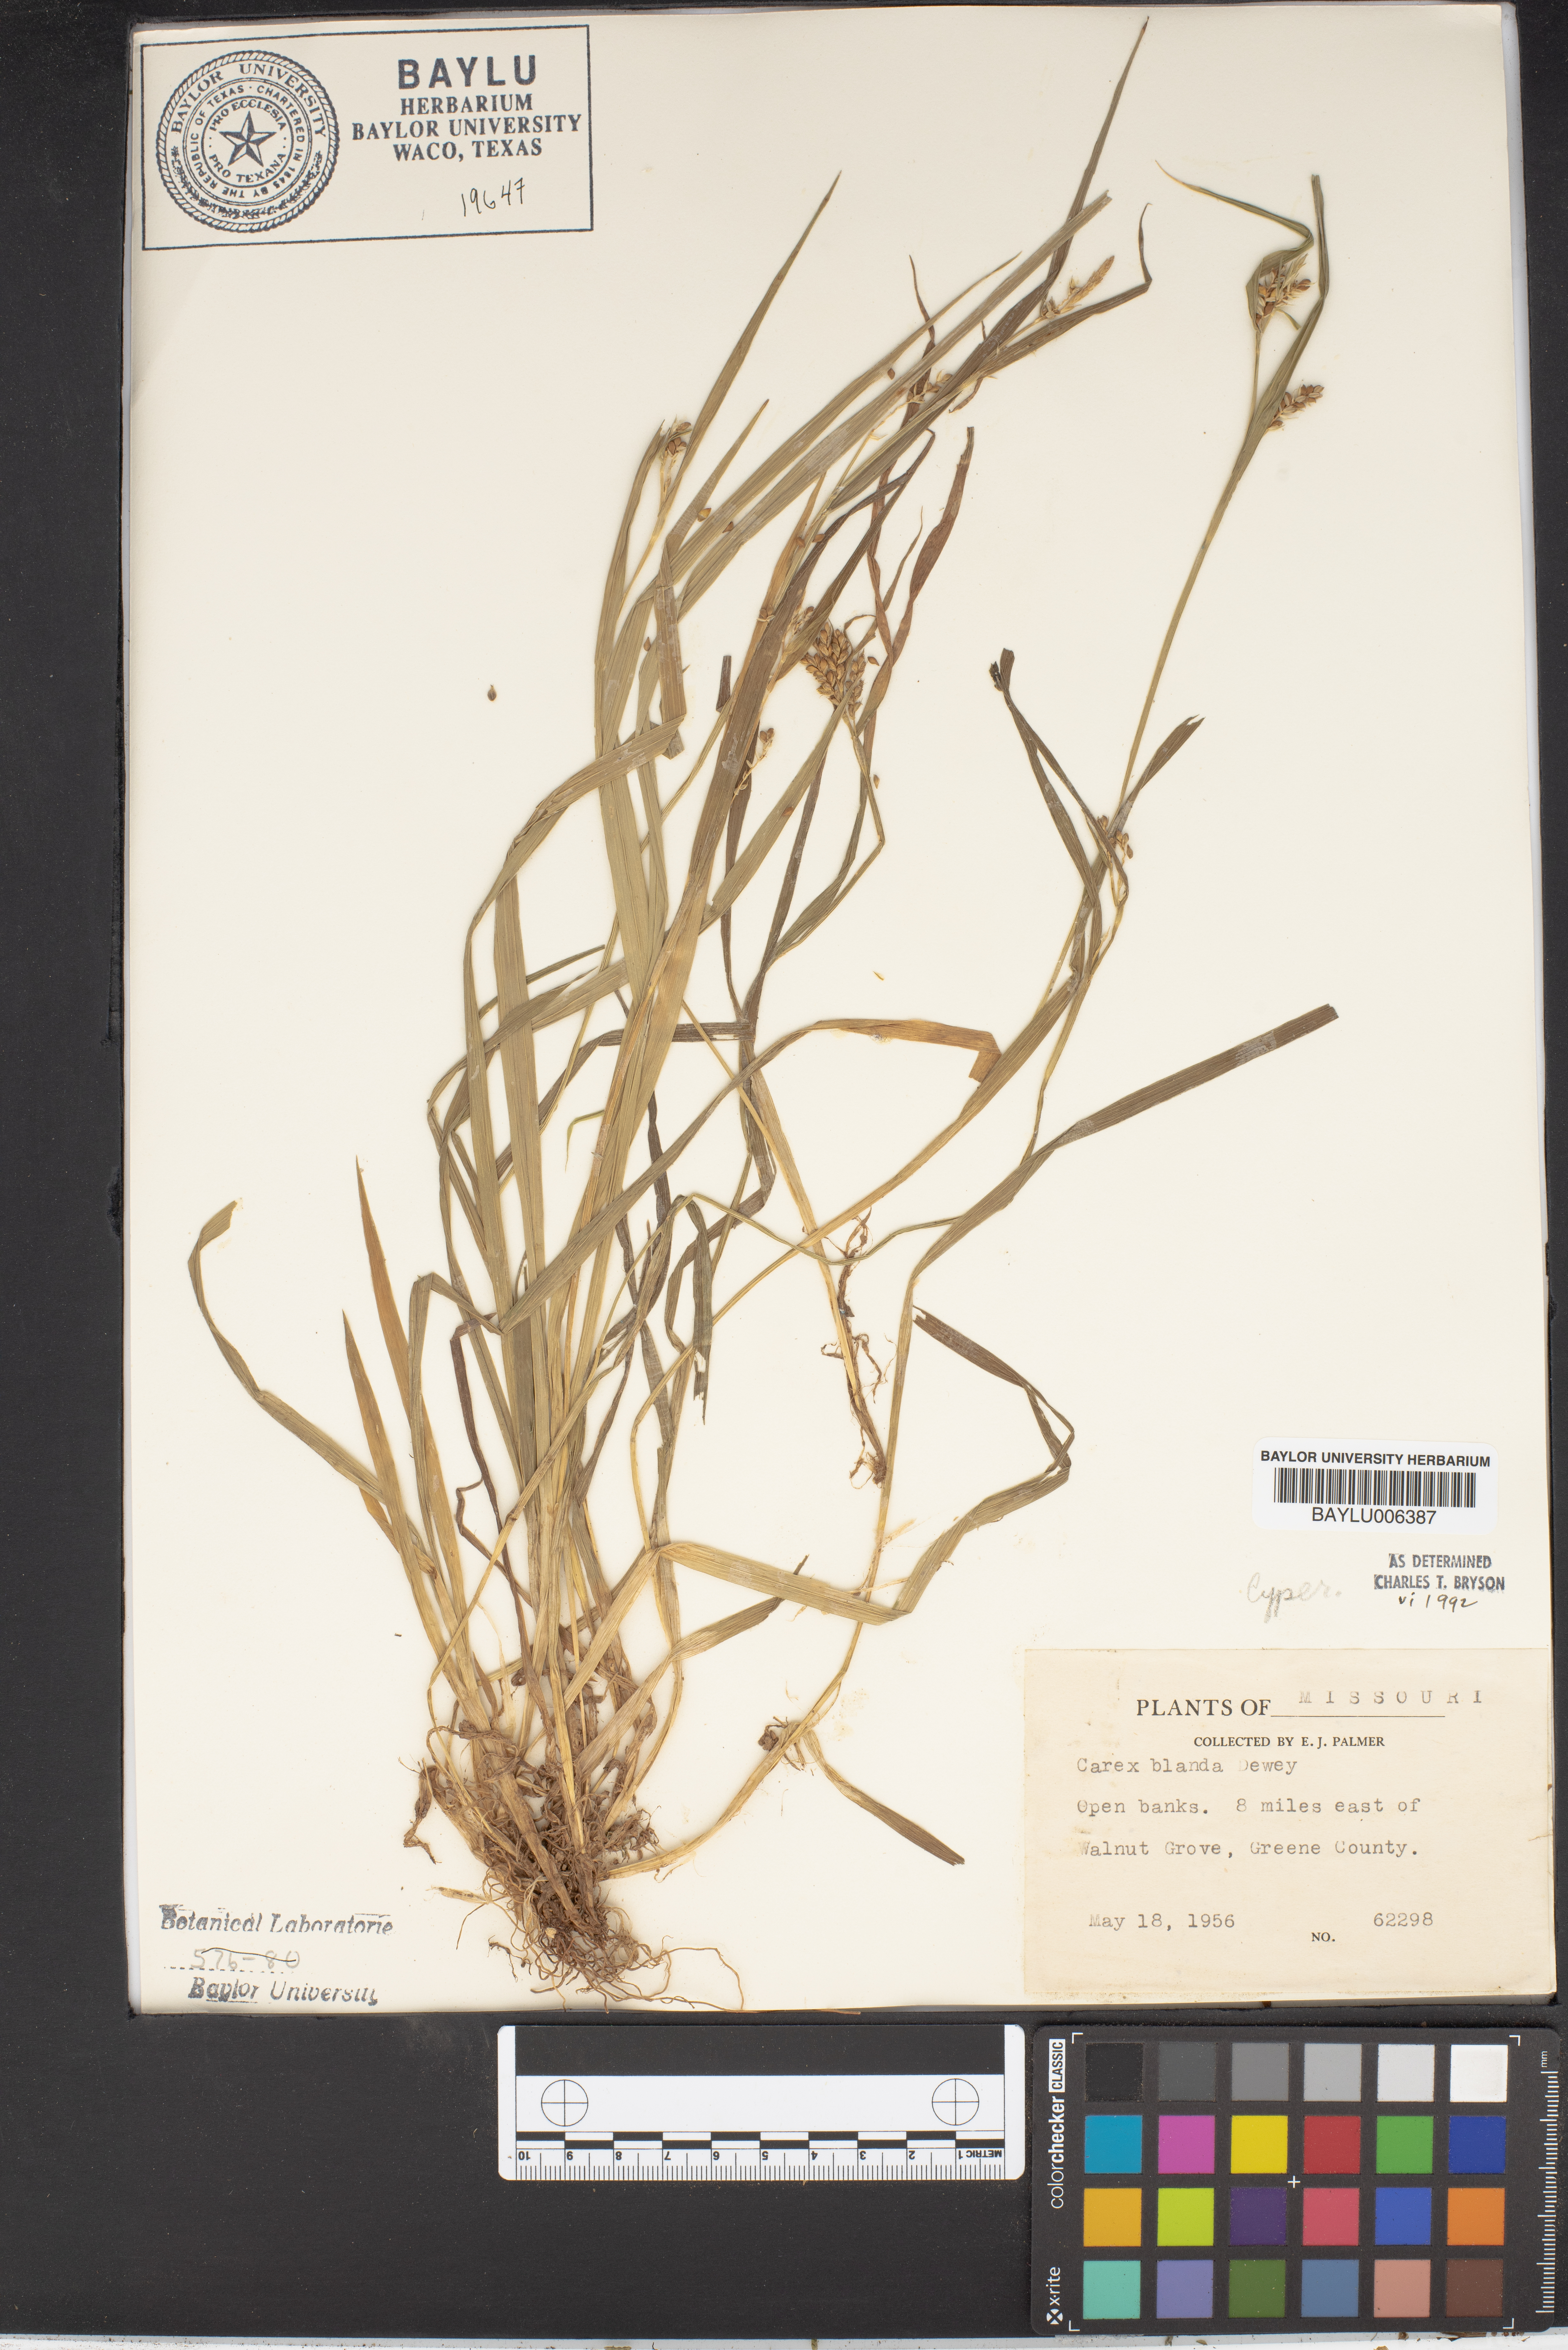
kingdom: Plantae
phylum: Tracheophyta
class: Liliopsida
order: Poales
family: Cyperaceae
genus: Carex
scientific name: Carex blanda
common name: Bland sedge
